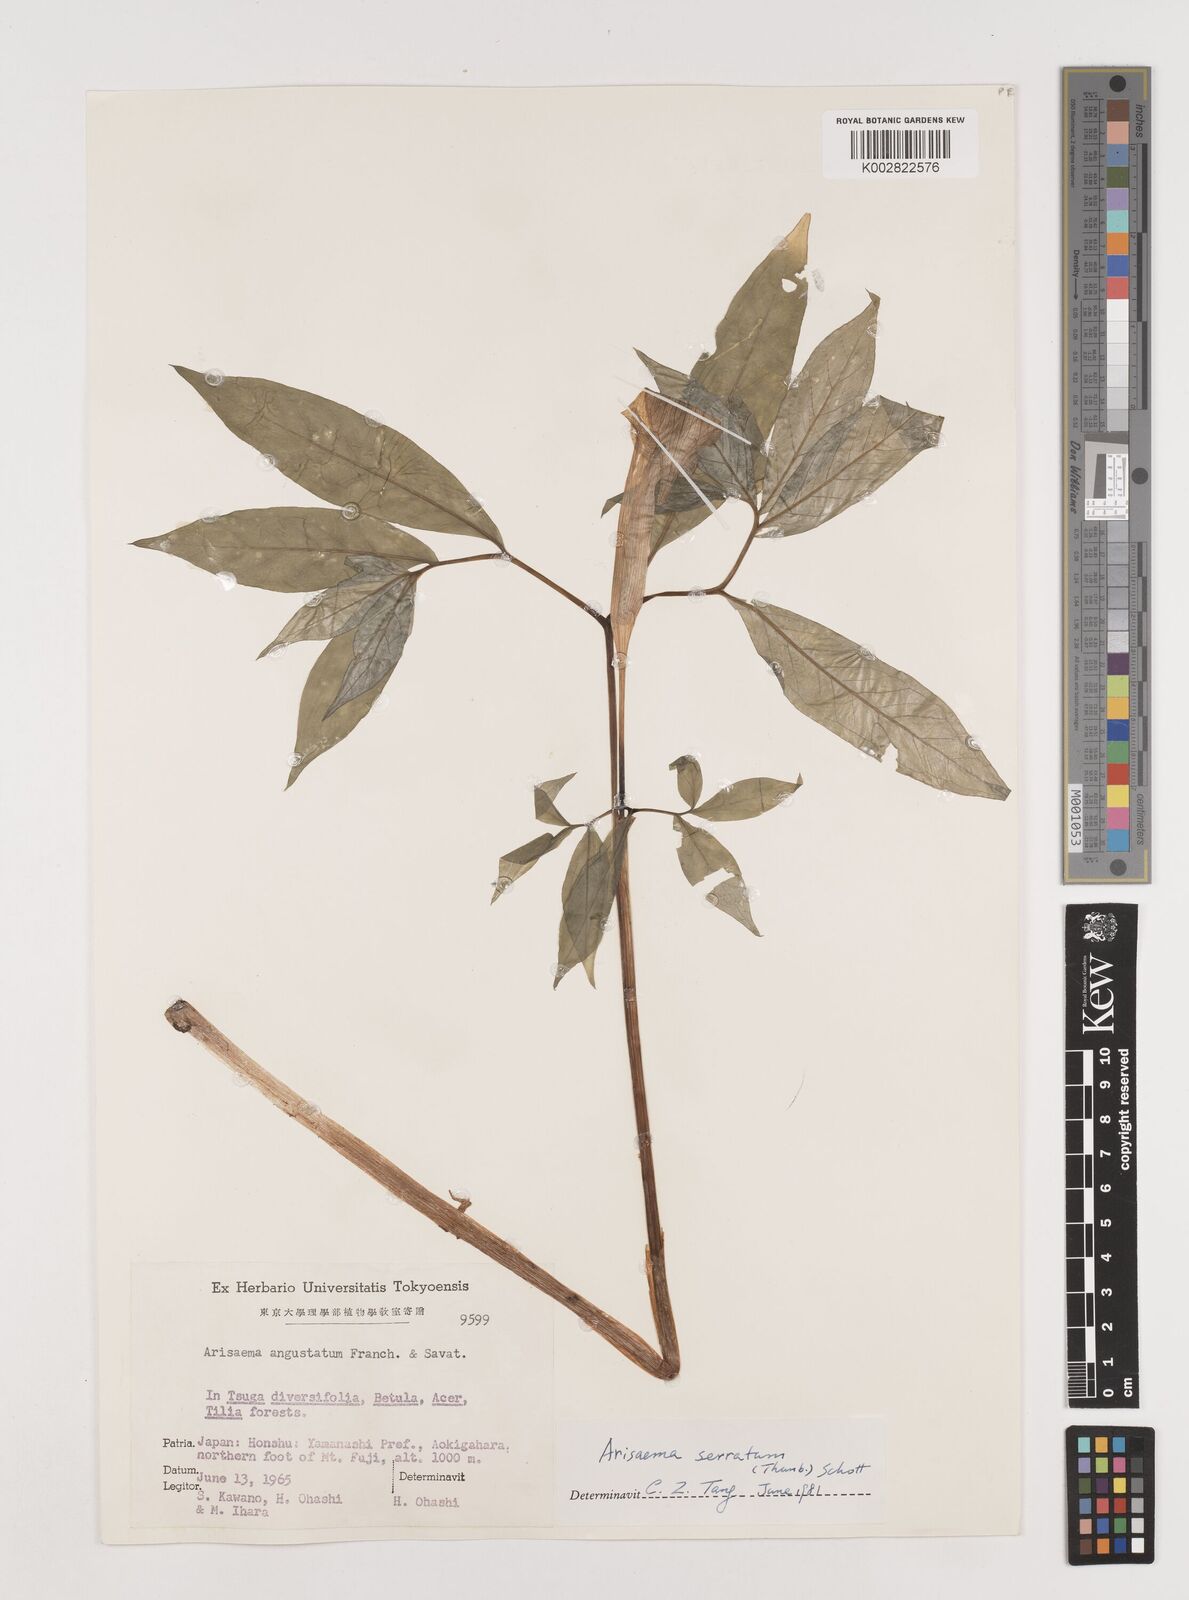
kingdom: Plantae
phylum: Tracheophyta
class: Liliopsida
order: Alismatales
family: Araceae
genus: Arisaema
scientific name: Arisaema serratum
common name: Japanese arisaema
